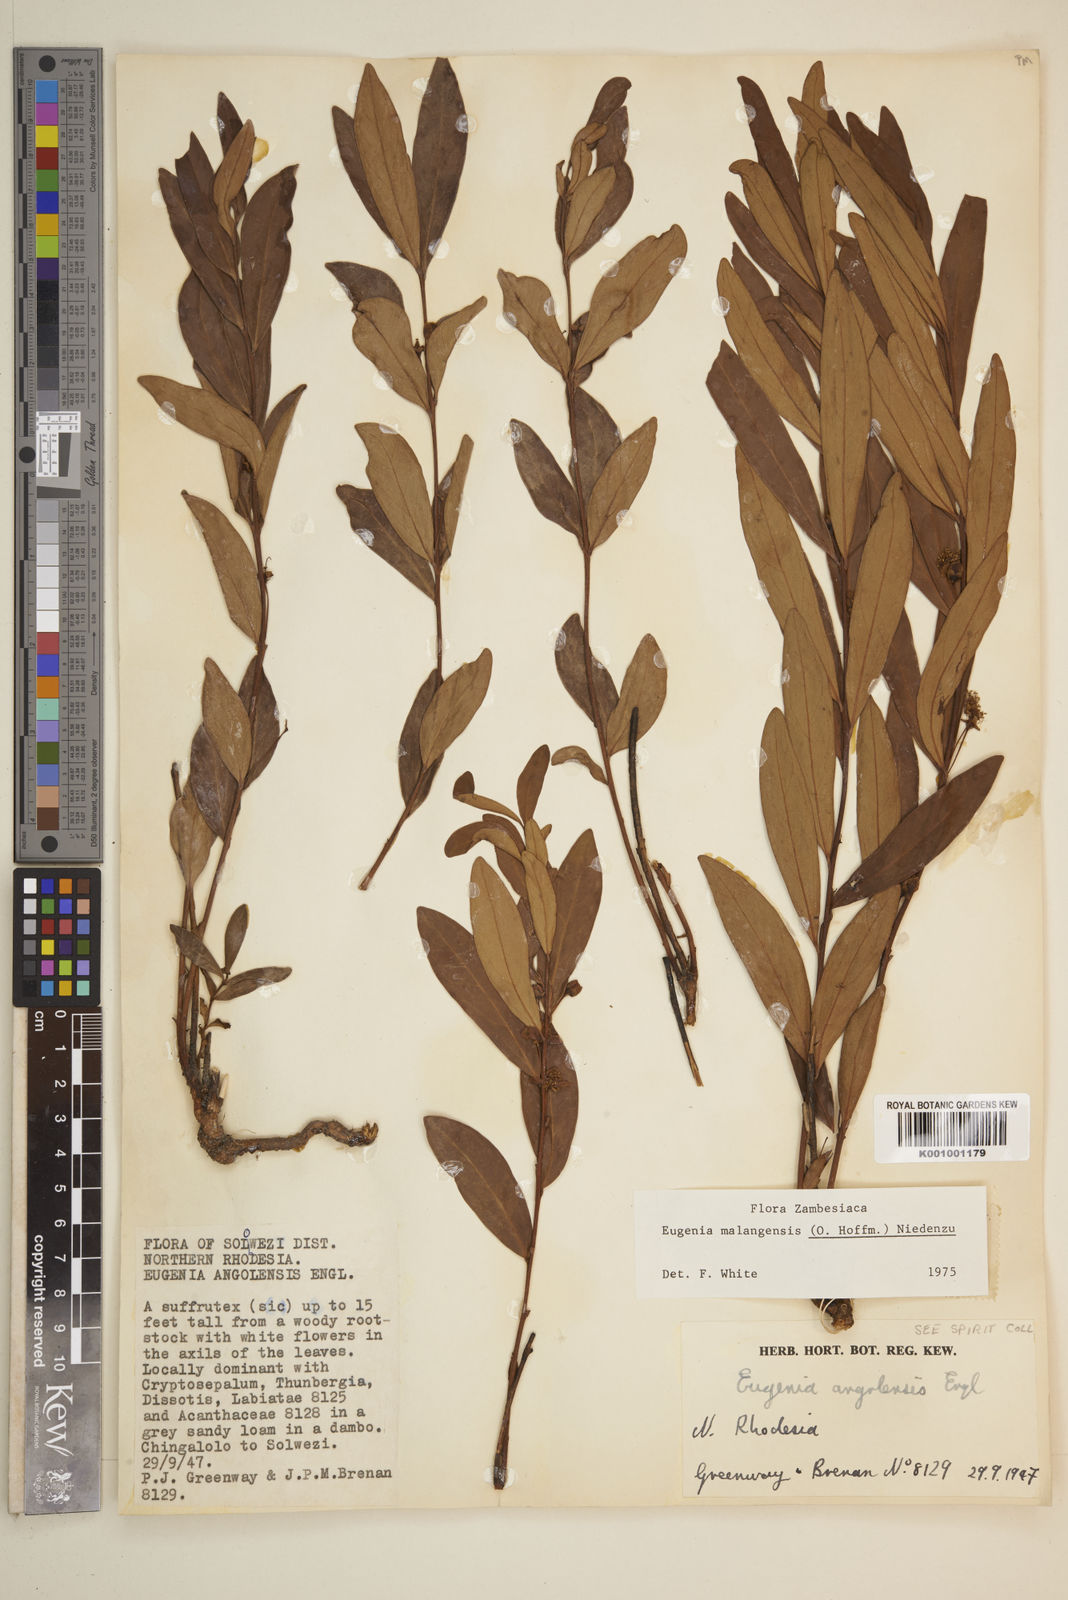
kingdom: Plantae
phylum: Tracheophyta
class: Magnoliopsida
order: Myrtales
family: Myrtaceae
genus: Eugenia
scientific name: Eugenia malangensis
